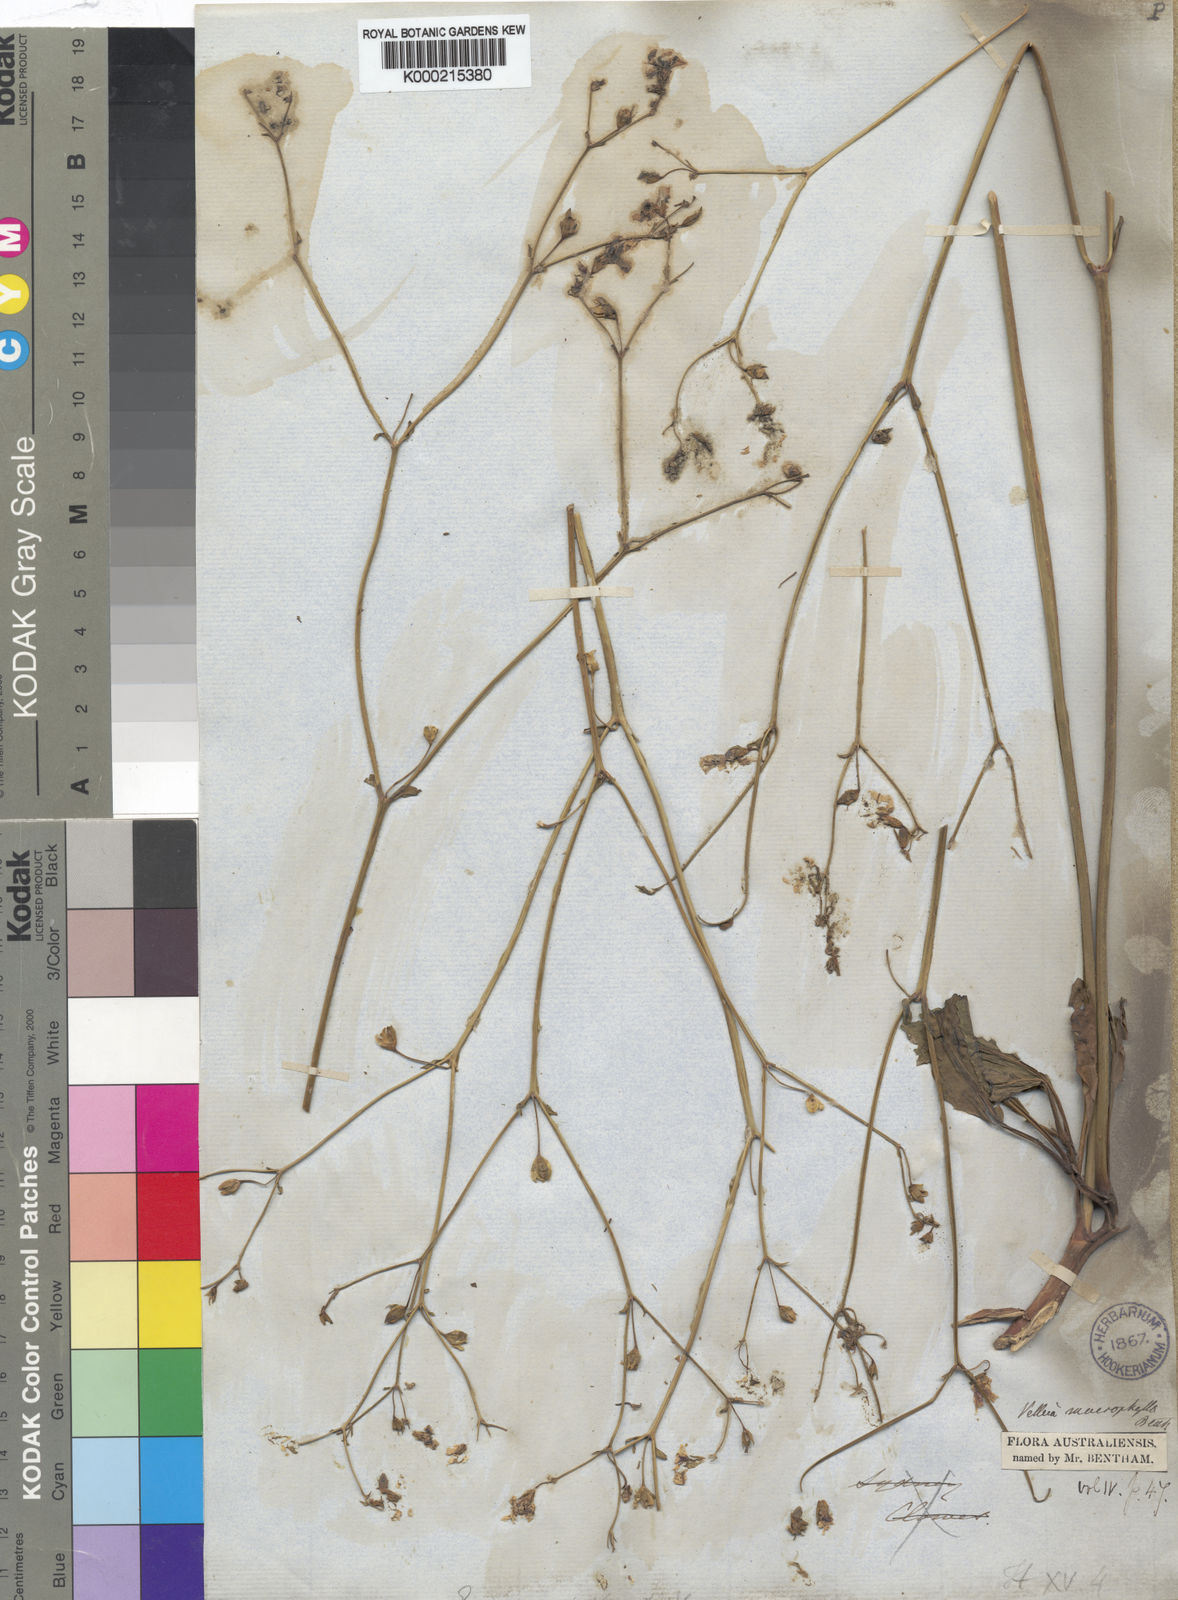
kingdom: Plantae
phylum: Tracheophyta
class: Magnoliopsida
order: Asterales
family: Goodeniaceae
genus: Goodenia
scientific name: Goodenia macrophylla
